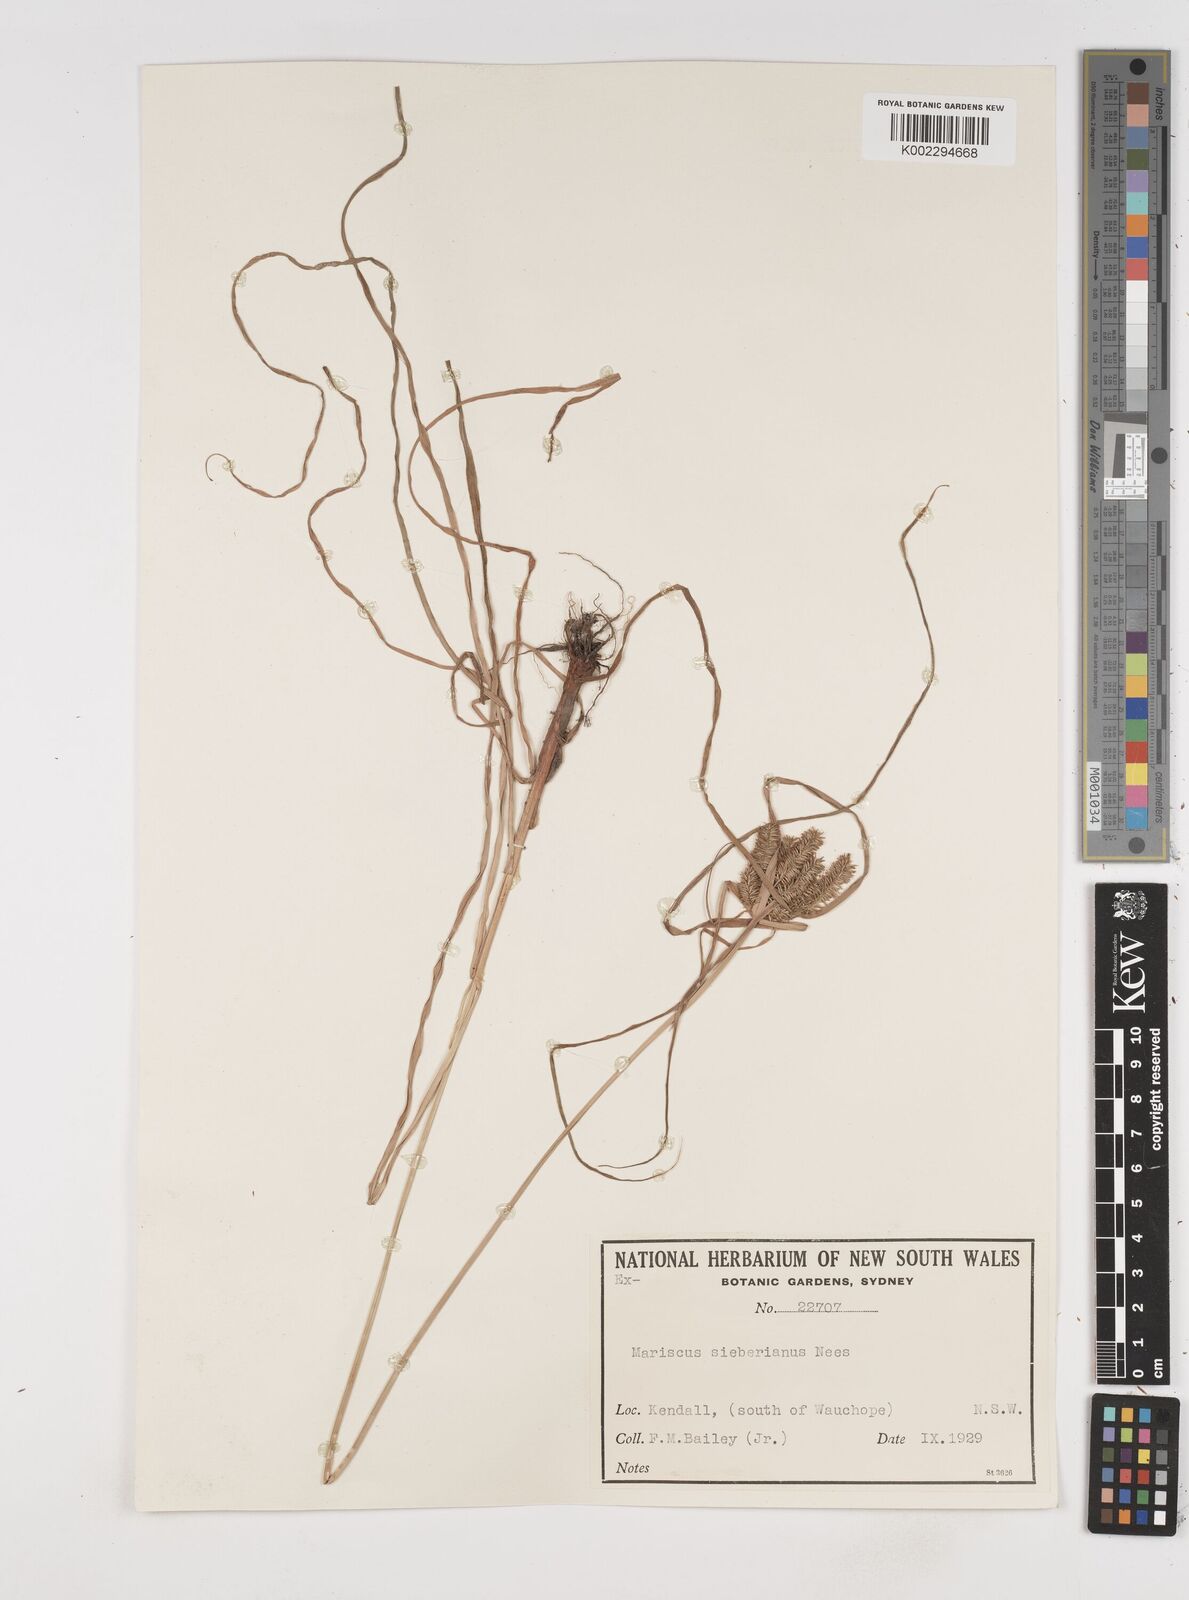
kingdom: Plantae
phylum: Tracheophyta
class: Liliopsida
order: Poales
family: Cyperaceae
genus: Cyperus
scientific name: Cyperus cyperoides
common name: Pacific island flat sedge
